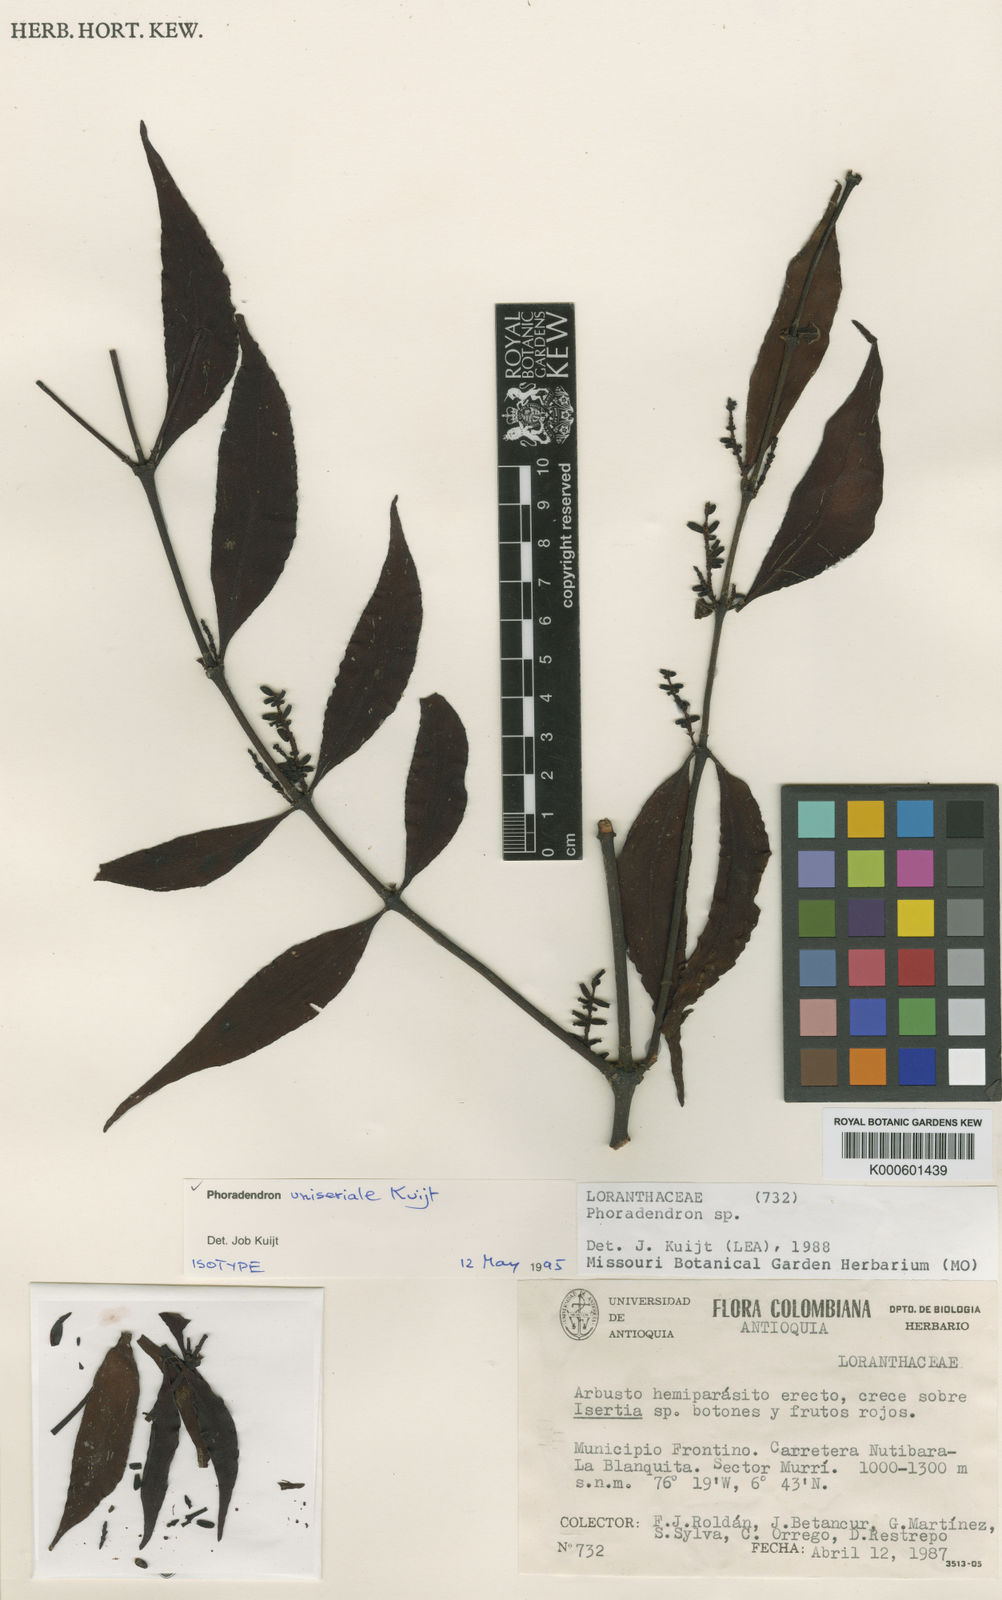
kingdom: Plantae
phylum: Tracheophyta
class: Magnoliopsida
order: Santalales
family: Viscaceae
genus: Phoradendron
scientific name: Phoradendron uniseriale
